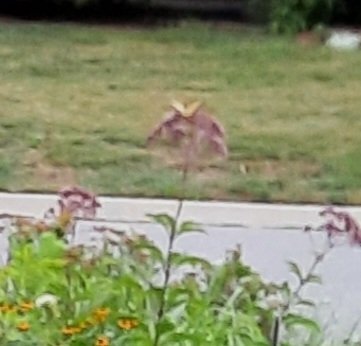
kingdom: Animalia
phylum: Arthropoda
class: Insecta
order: Lepidoptera
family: Papilionidae
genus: Pterourus
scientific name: Pterourus glaucus
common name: Eastern Tiger Swallowtail
